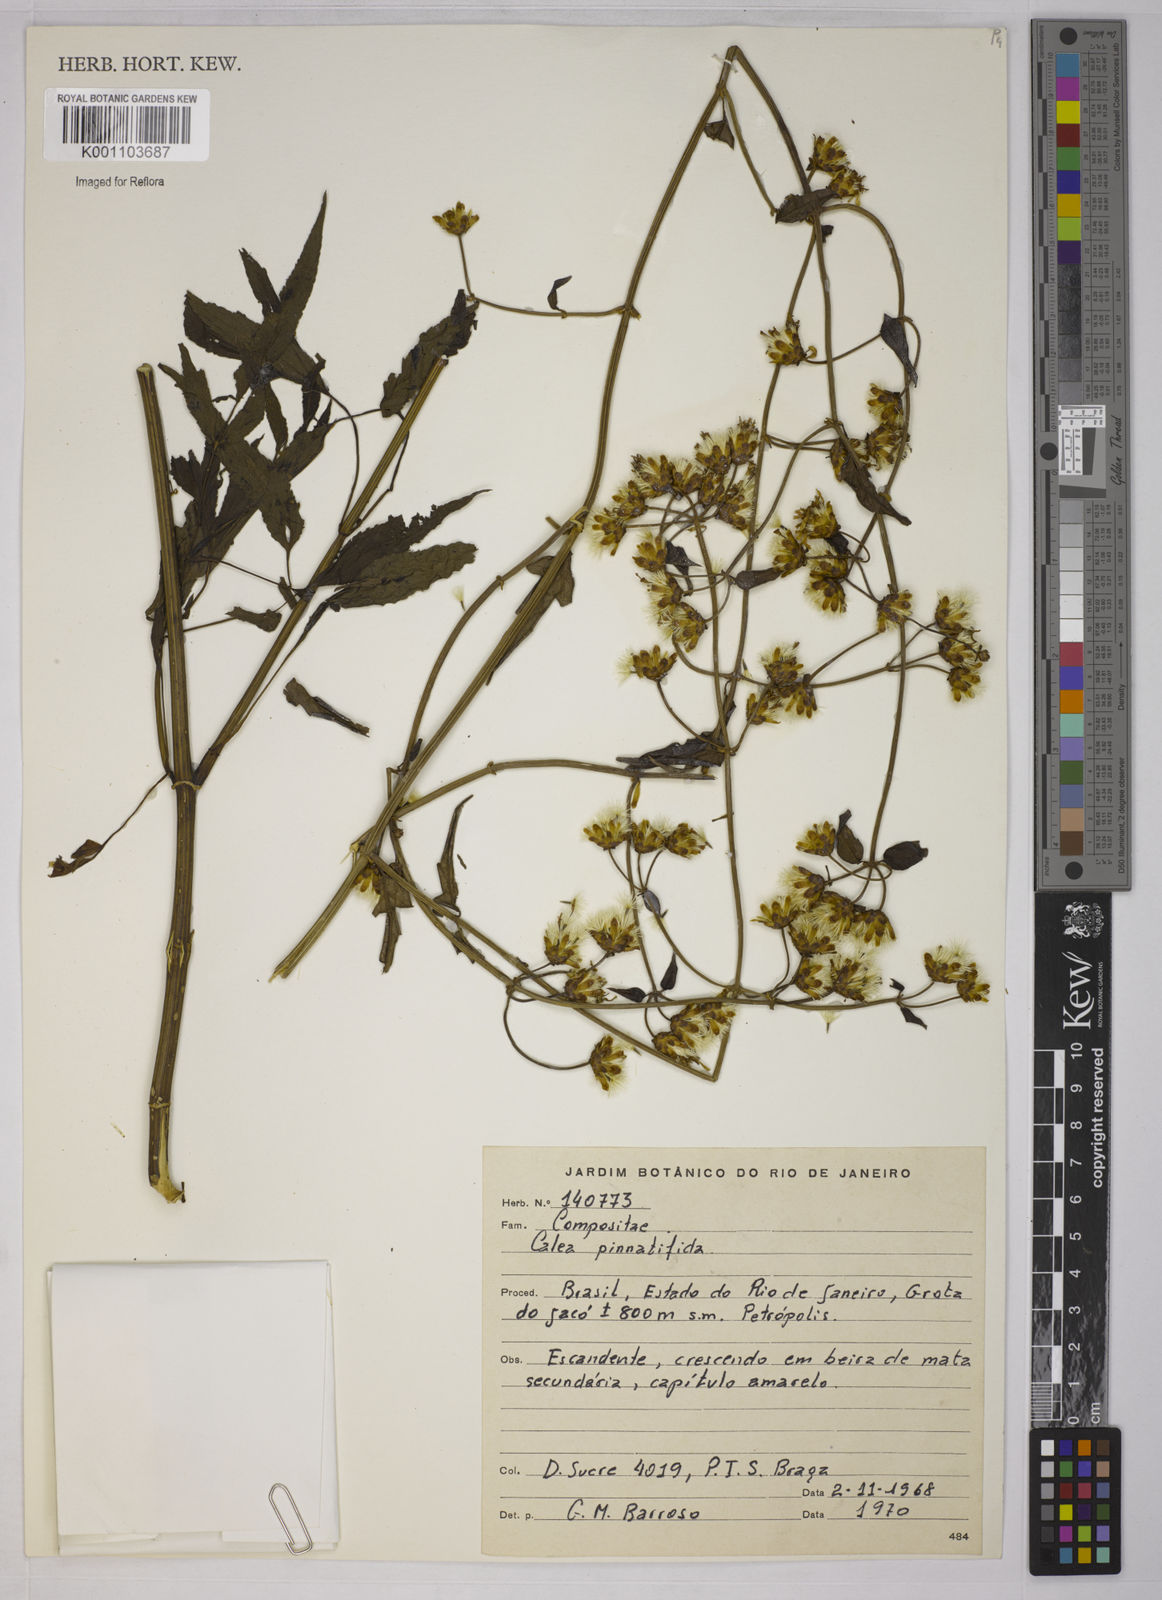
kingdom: Plantae
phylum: Tracheophyta
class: Magnoliopsida
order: Asterales
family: Asteraceae
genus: Calea
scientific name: Calea
